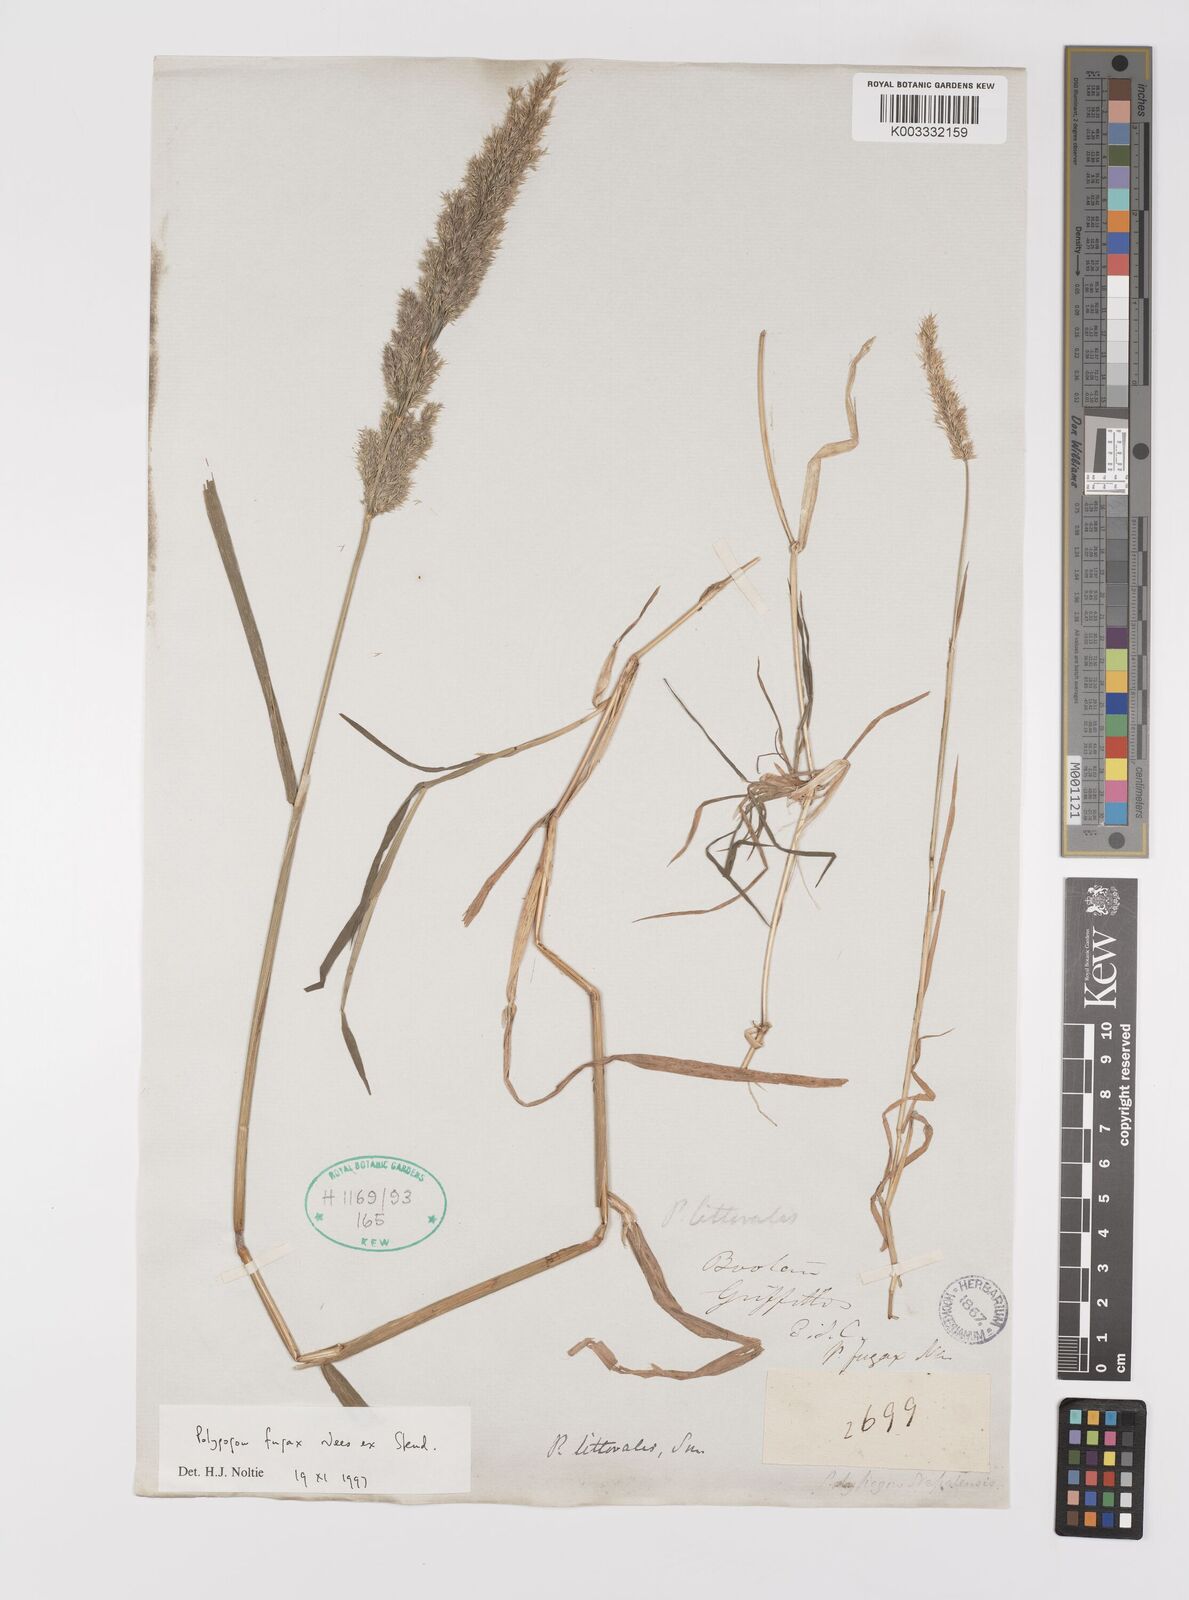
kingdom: Plantae
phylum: Tracheophyta
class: Liliopsida
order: Poales
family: Poaceae
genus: Polypogon
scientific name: Polypogon fugax
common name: Asia minor bluegrass
